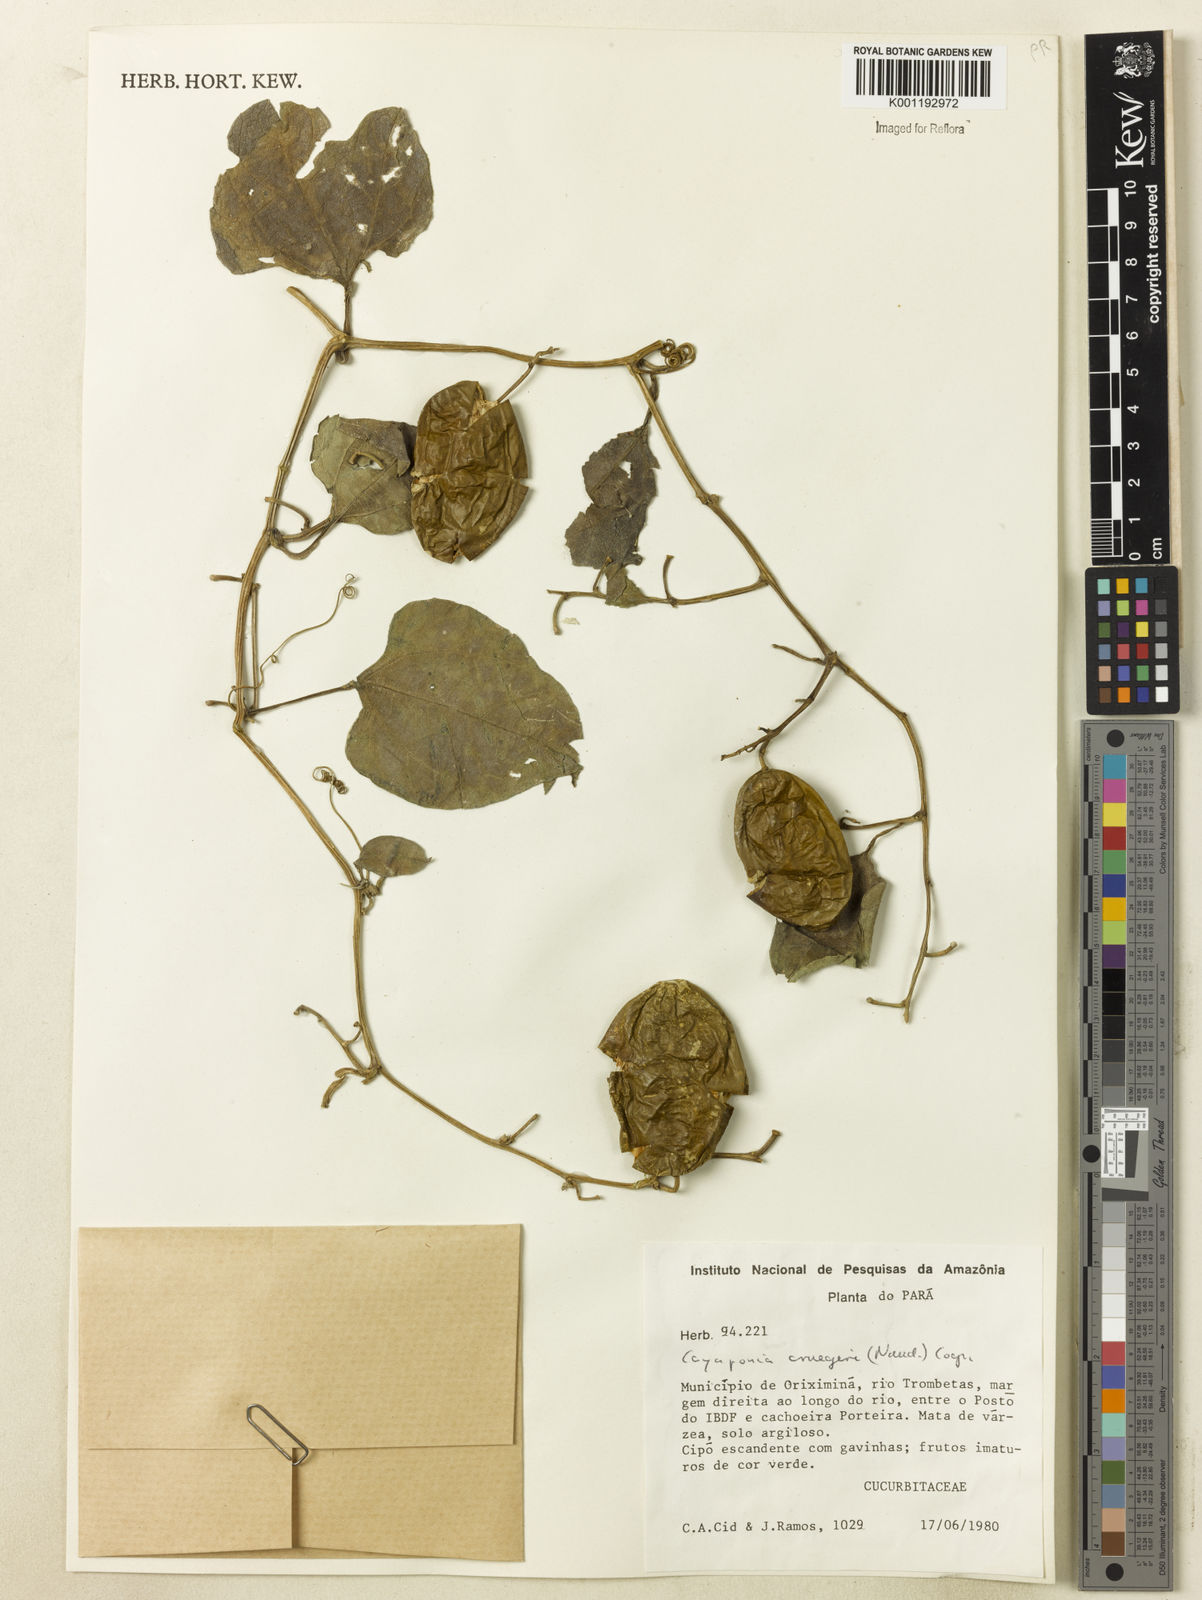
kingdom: Plantae
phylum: Tracheophyta
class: Magnoliopsida
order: Cucurbitales
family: Cucurbitaceae
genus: Cayaponia
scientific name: Cayaponia cruegeri
